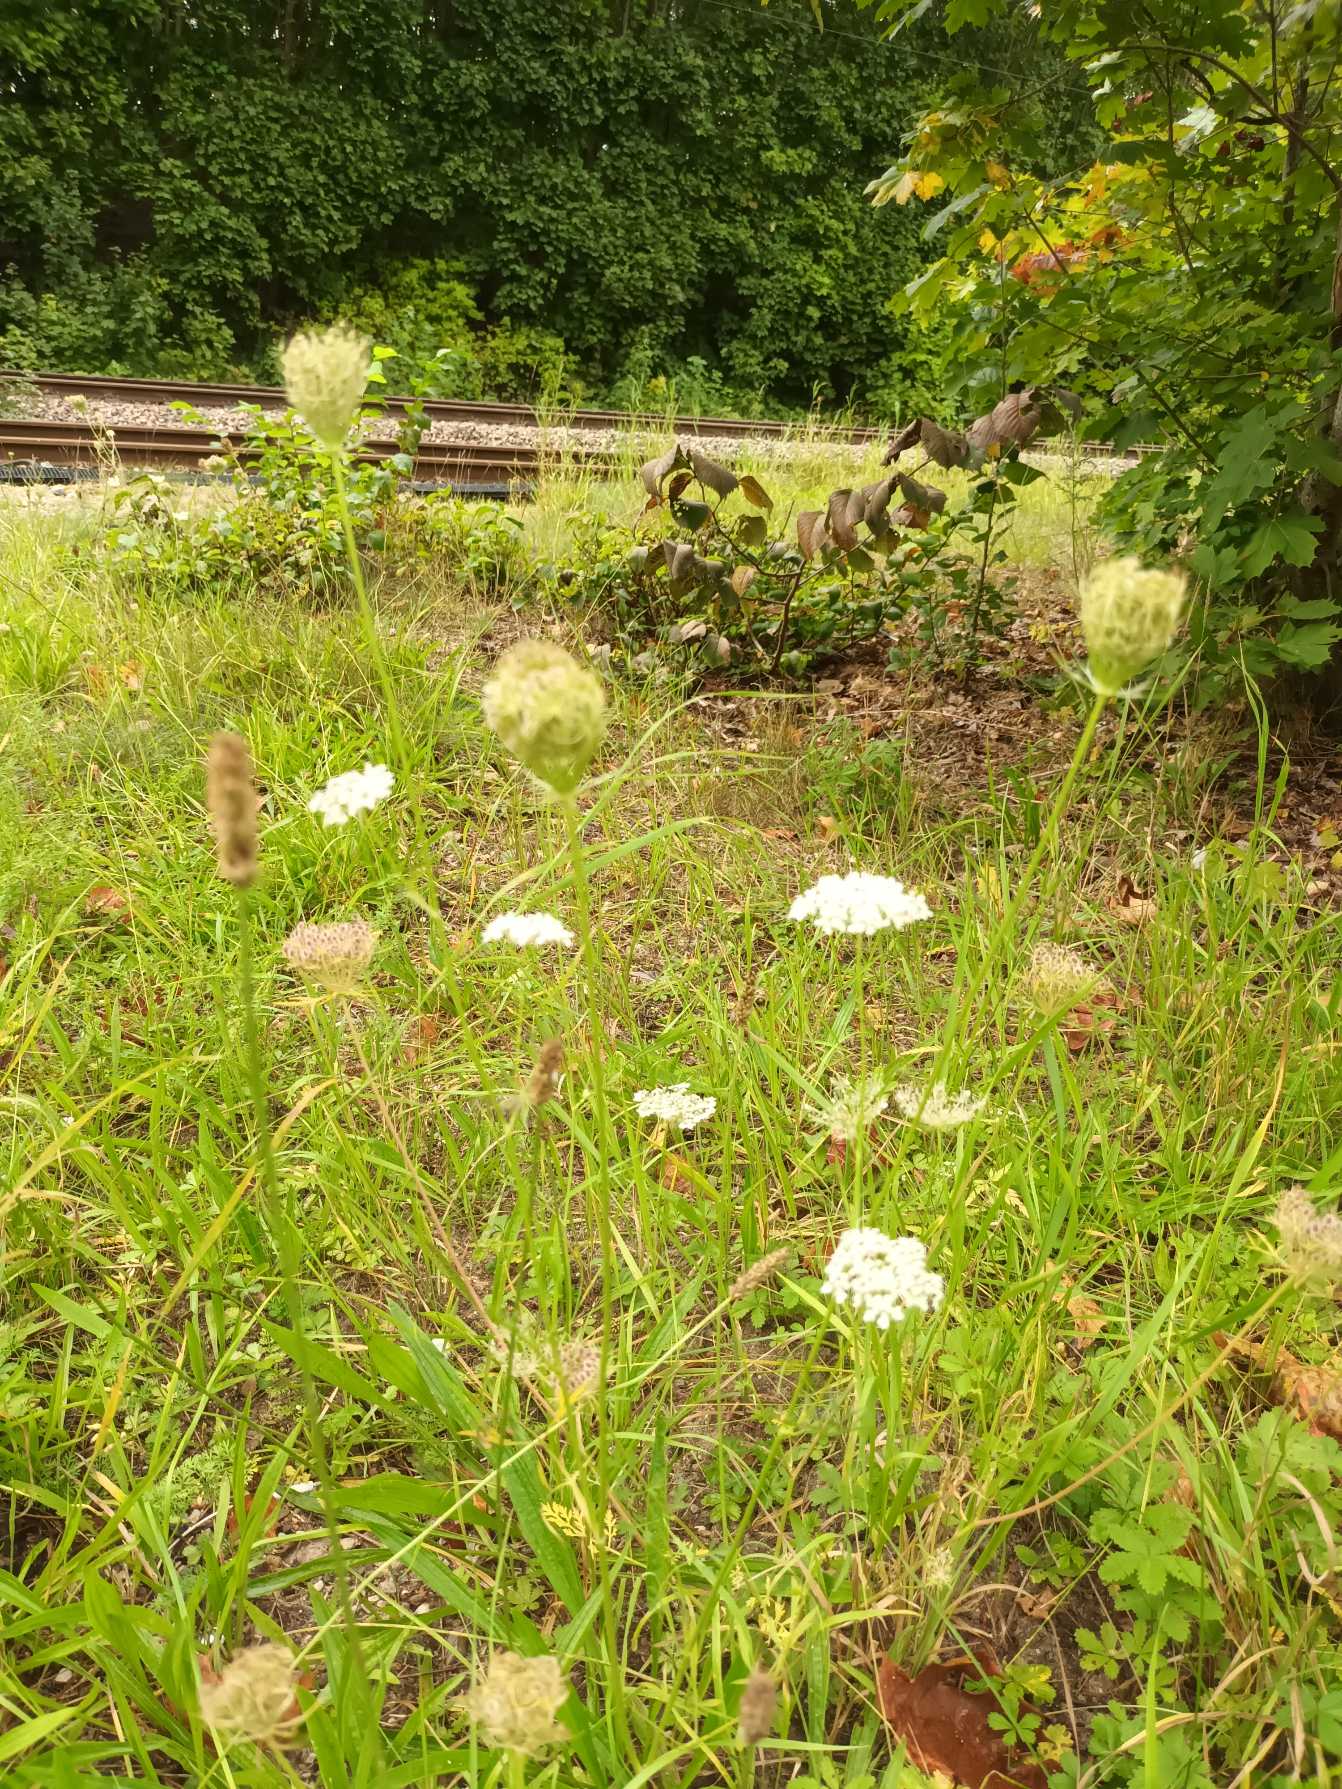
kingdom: Plantae
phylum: Tracheophyta
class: Magnoliopsida
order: Apiales
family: Apiaceae
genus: Daucus
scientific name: Daucus carota
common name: Vild gulerod
